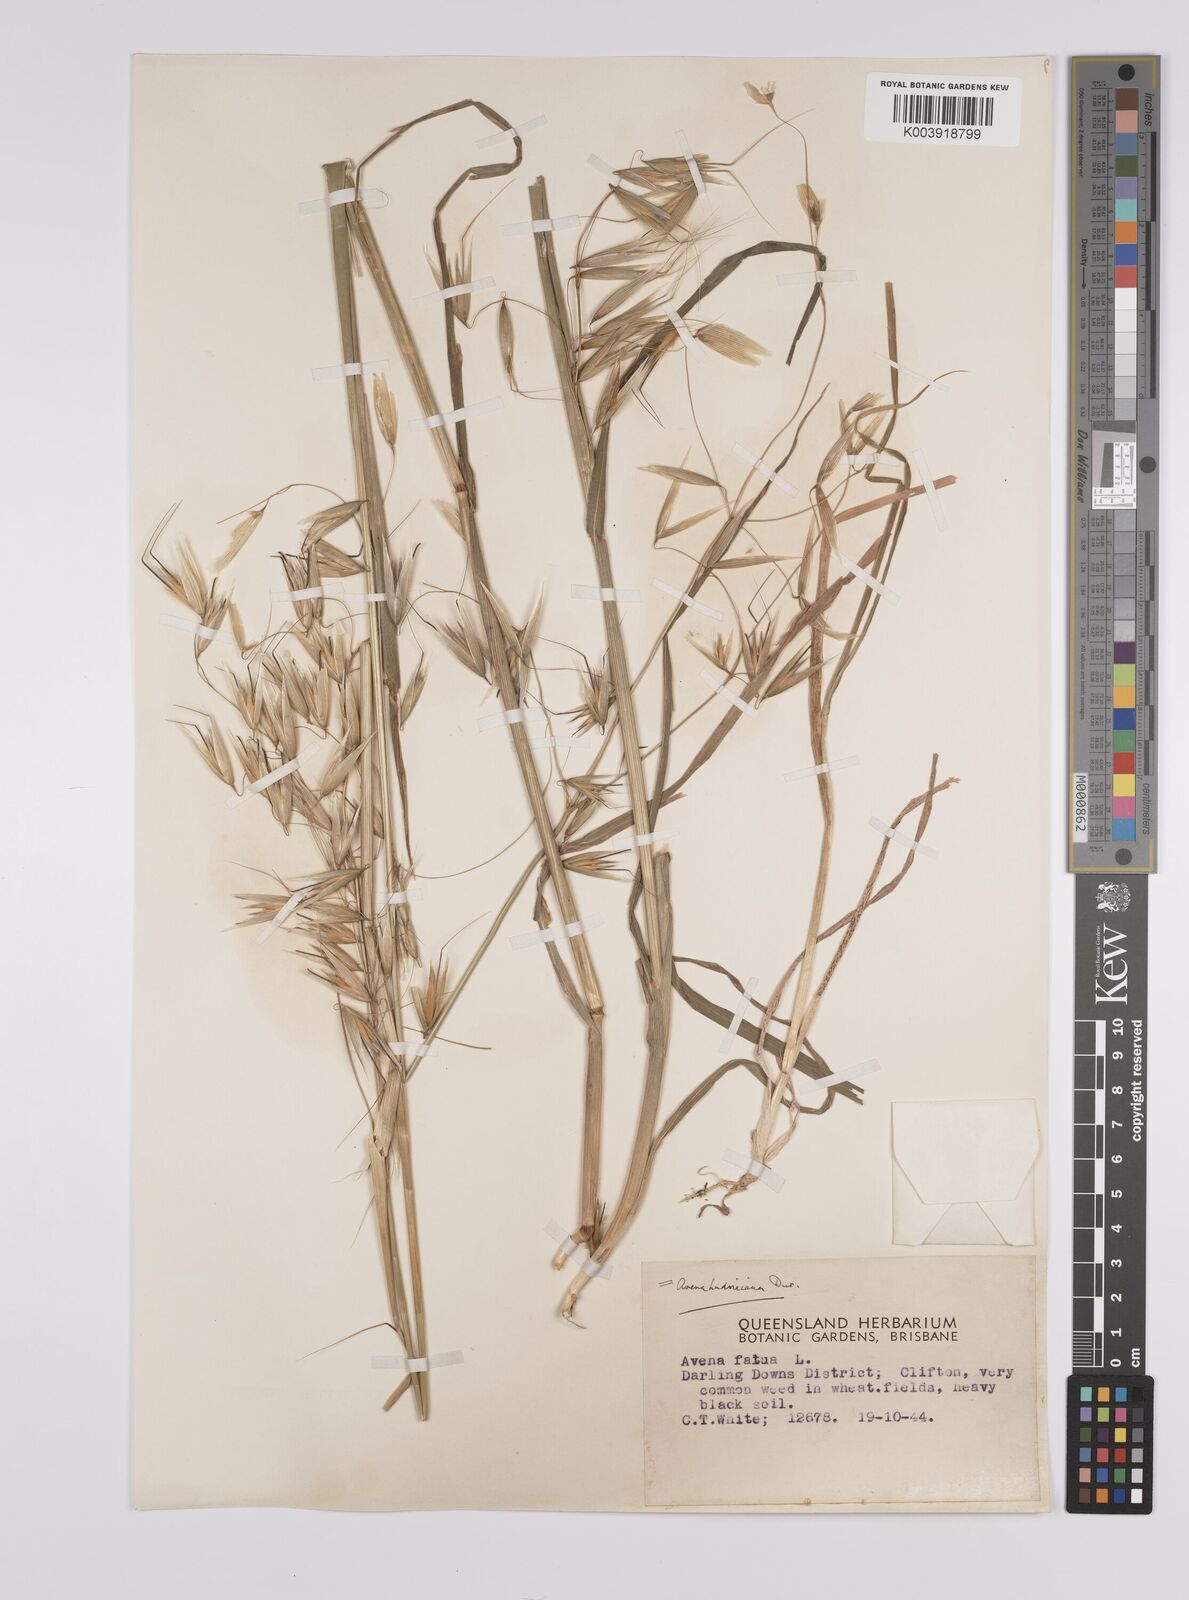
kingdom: Plantae
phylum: Tracheophyta
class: Liliopsida
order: Poales
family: Poaceae
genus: Avena
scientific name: Avena sterilis
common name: Animated oat
